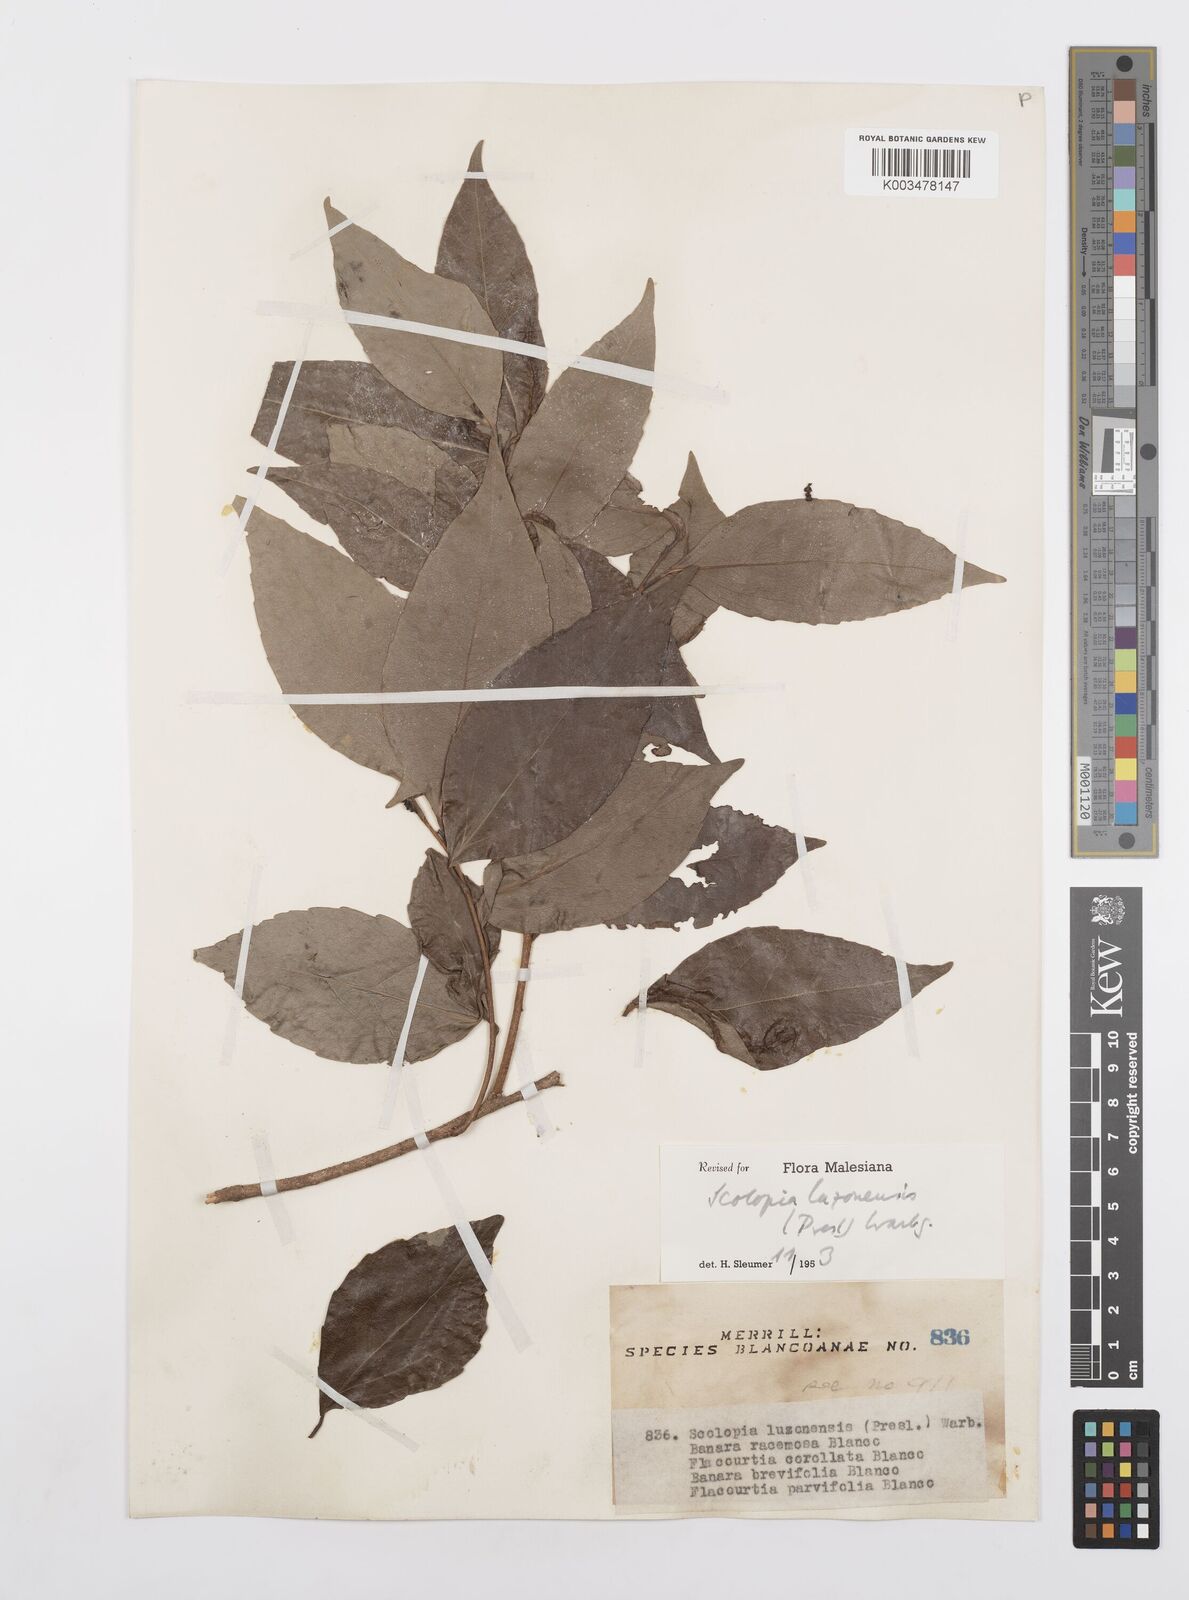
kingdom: Plantae
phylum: Tracheophyta
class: Magnoliopsida
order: Malpighiales
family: Salicaceae
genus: Scolopia
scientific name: Scolopia luzonensis
